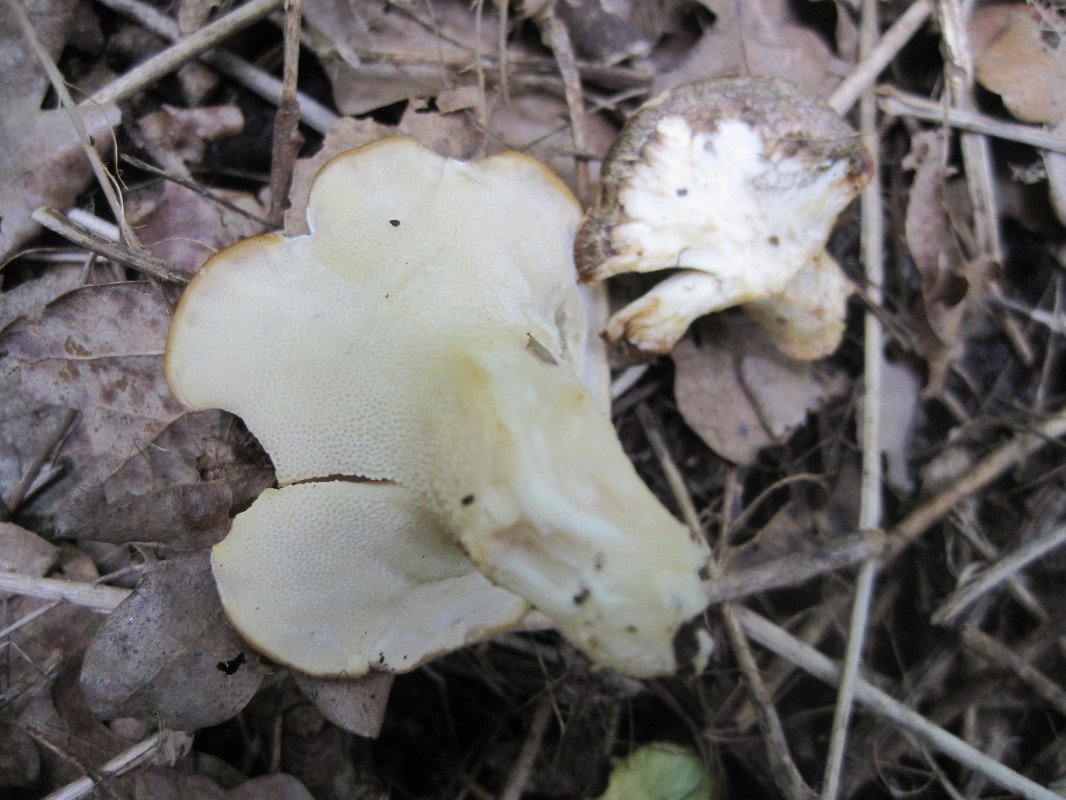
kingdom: Fungi
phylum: Basidiomycota
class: Agaricomycetes
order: Polyporales
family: Polyporaceae
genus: Lentinus
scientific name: Lentinus substrictus
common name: forårs-stilkporesvamp
